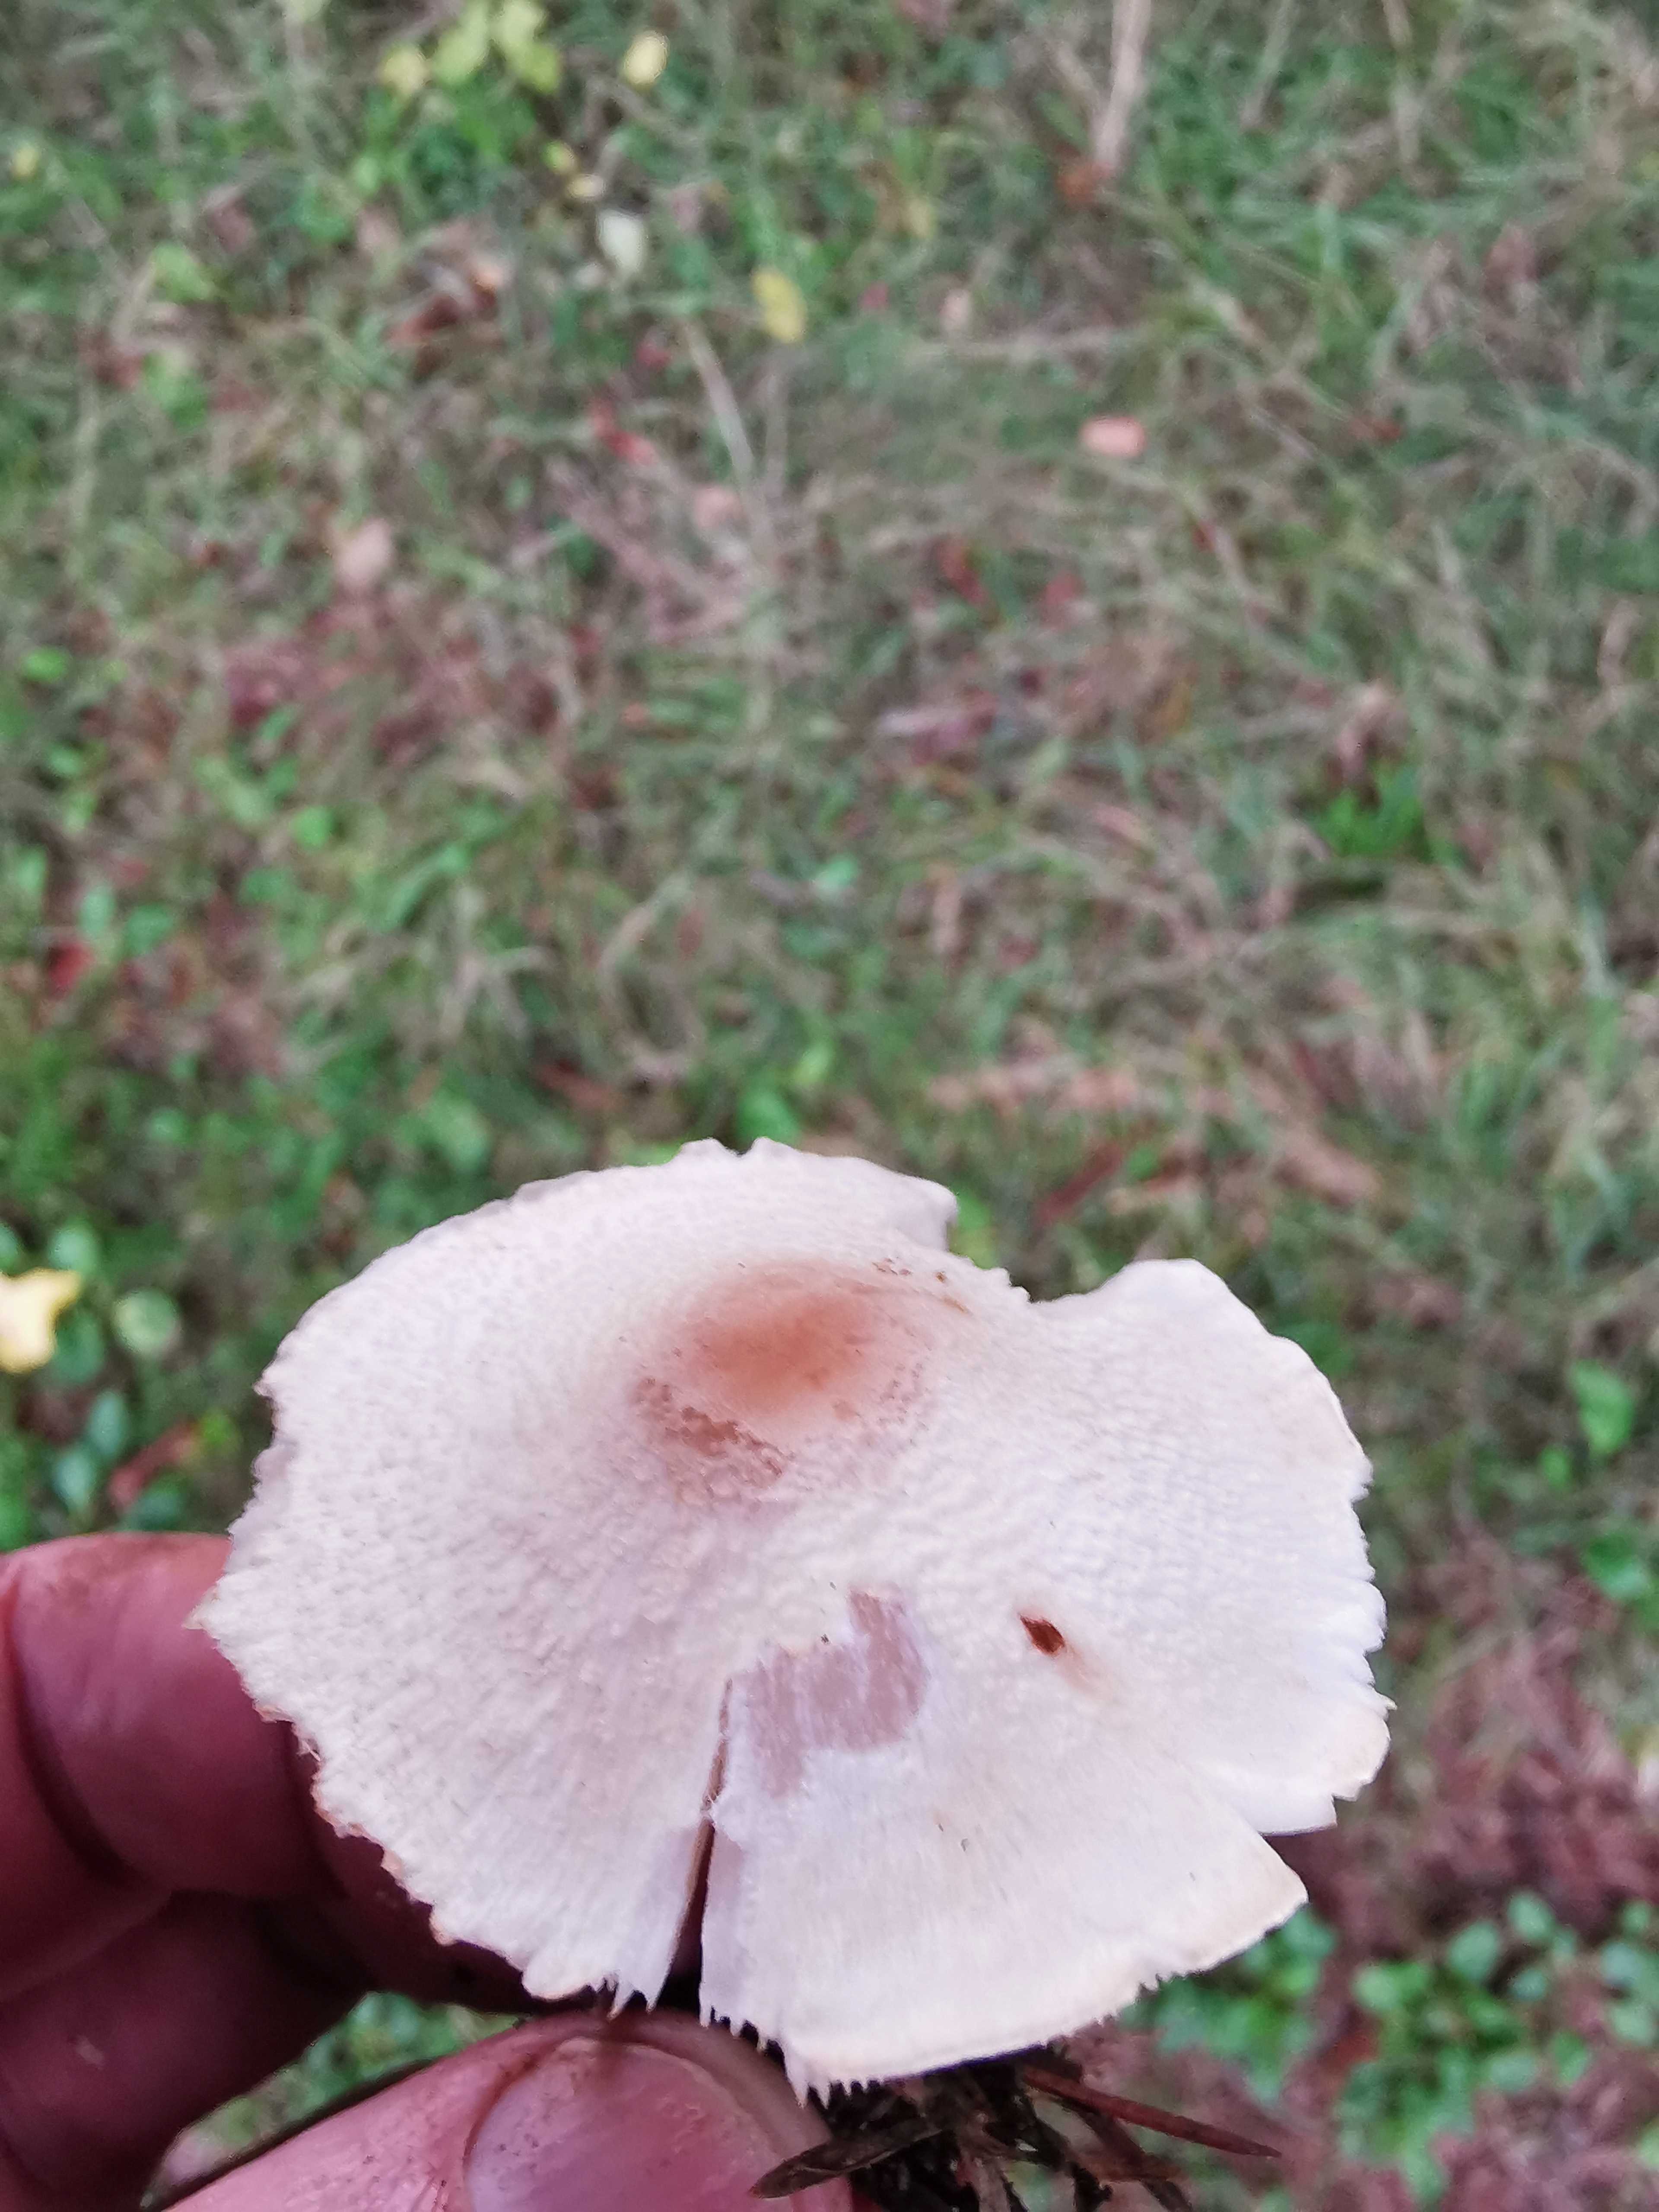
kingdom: Fungi
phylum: Basidiomycota
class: Agaricomycetes
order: Agaricales
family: Agaricaceae
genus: Lepiota
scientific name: Lepiota cristata
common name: stinkende parasolhat
